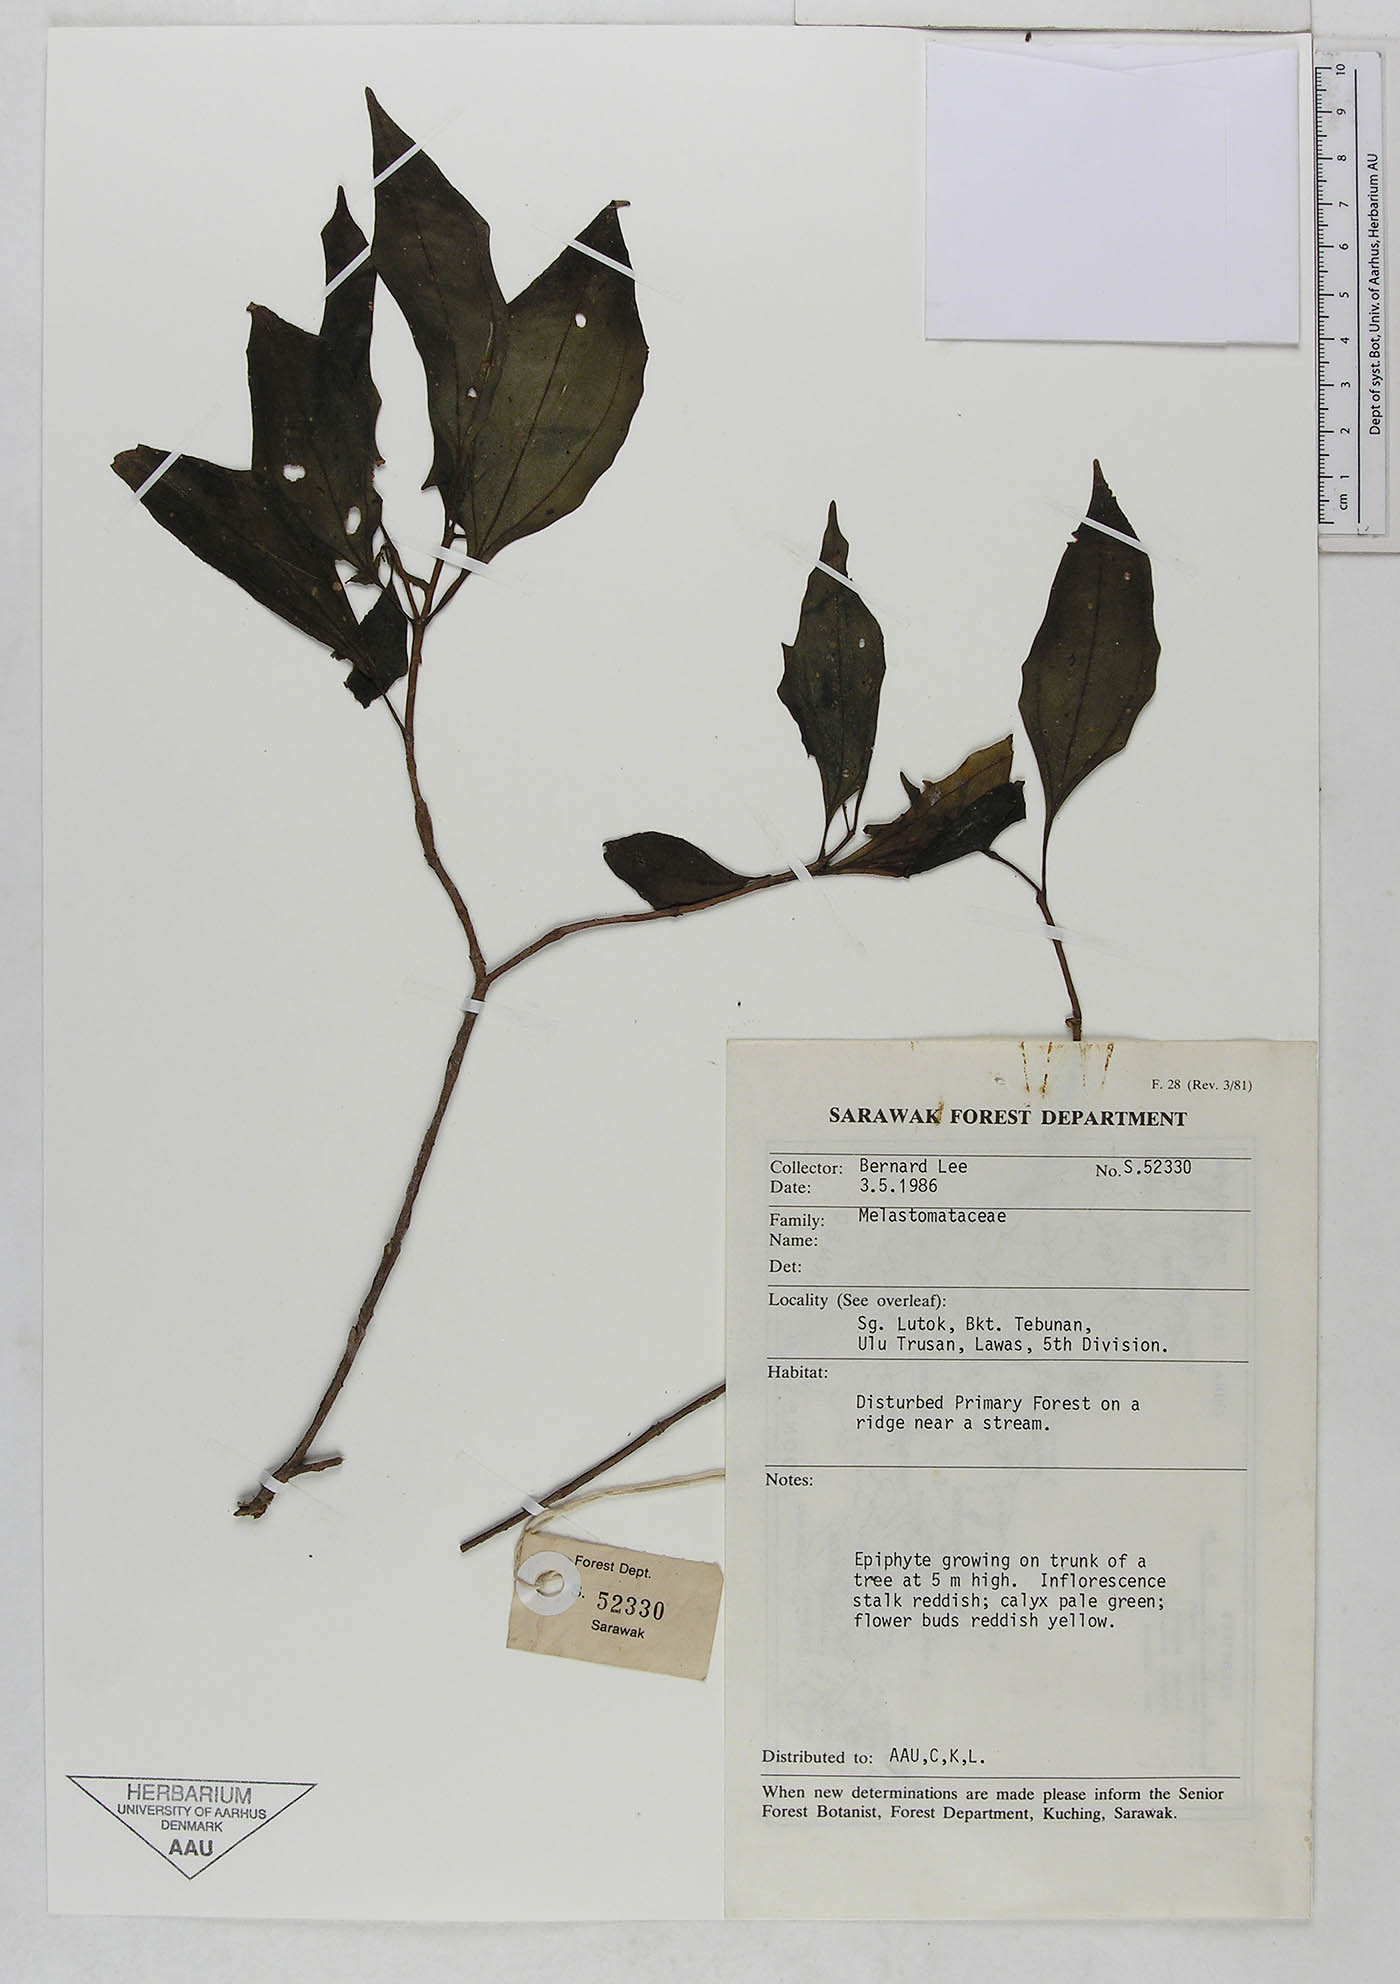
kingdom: Plantae
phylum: Tracheophyta
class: Magnoliopsida
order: Myrtales
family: Melastomataceae
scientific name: Melastomataceae
